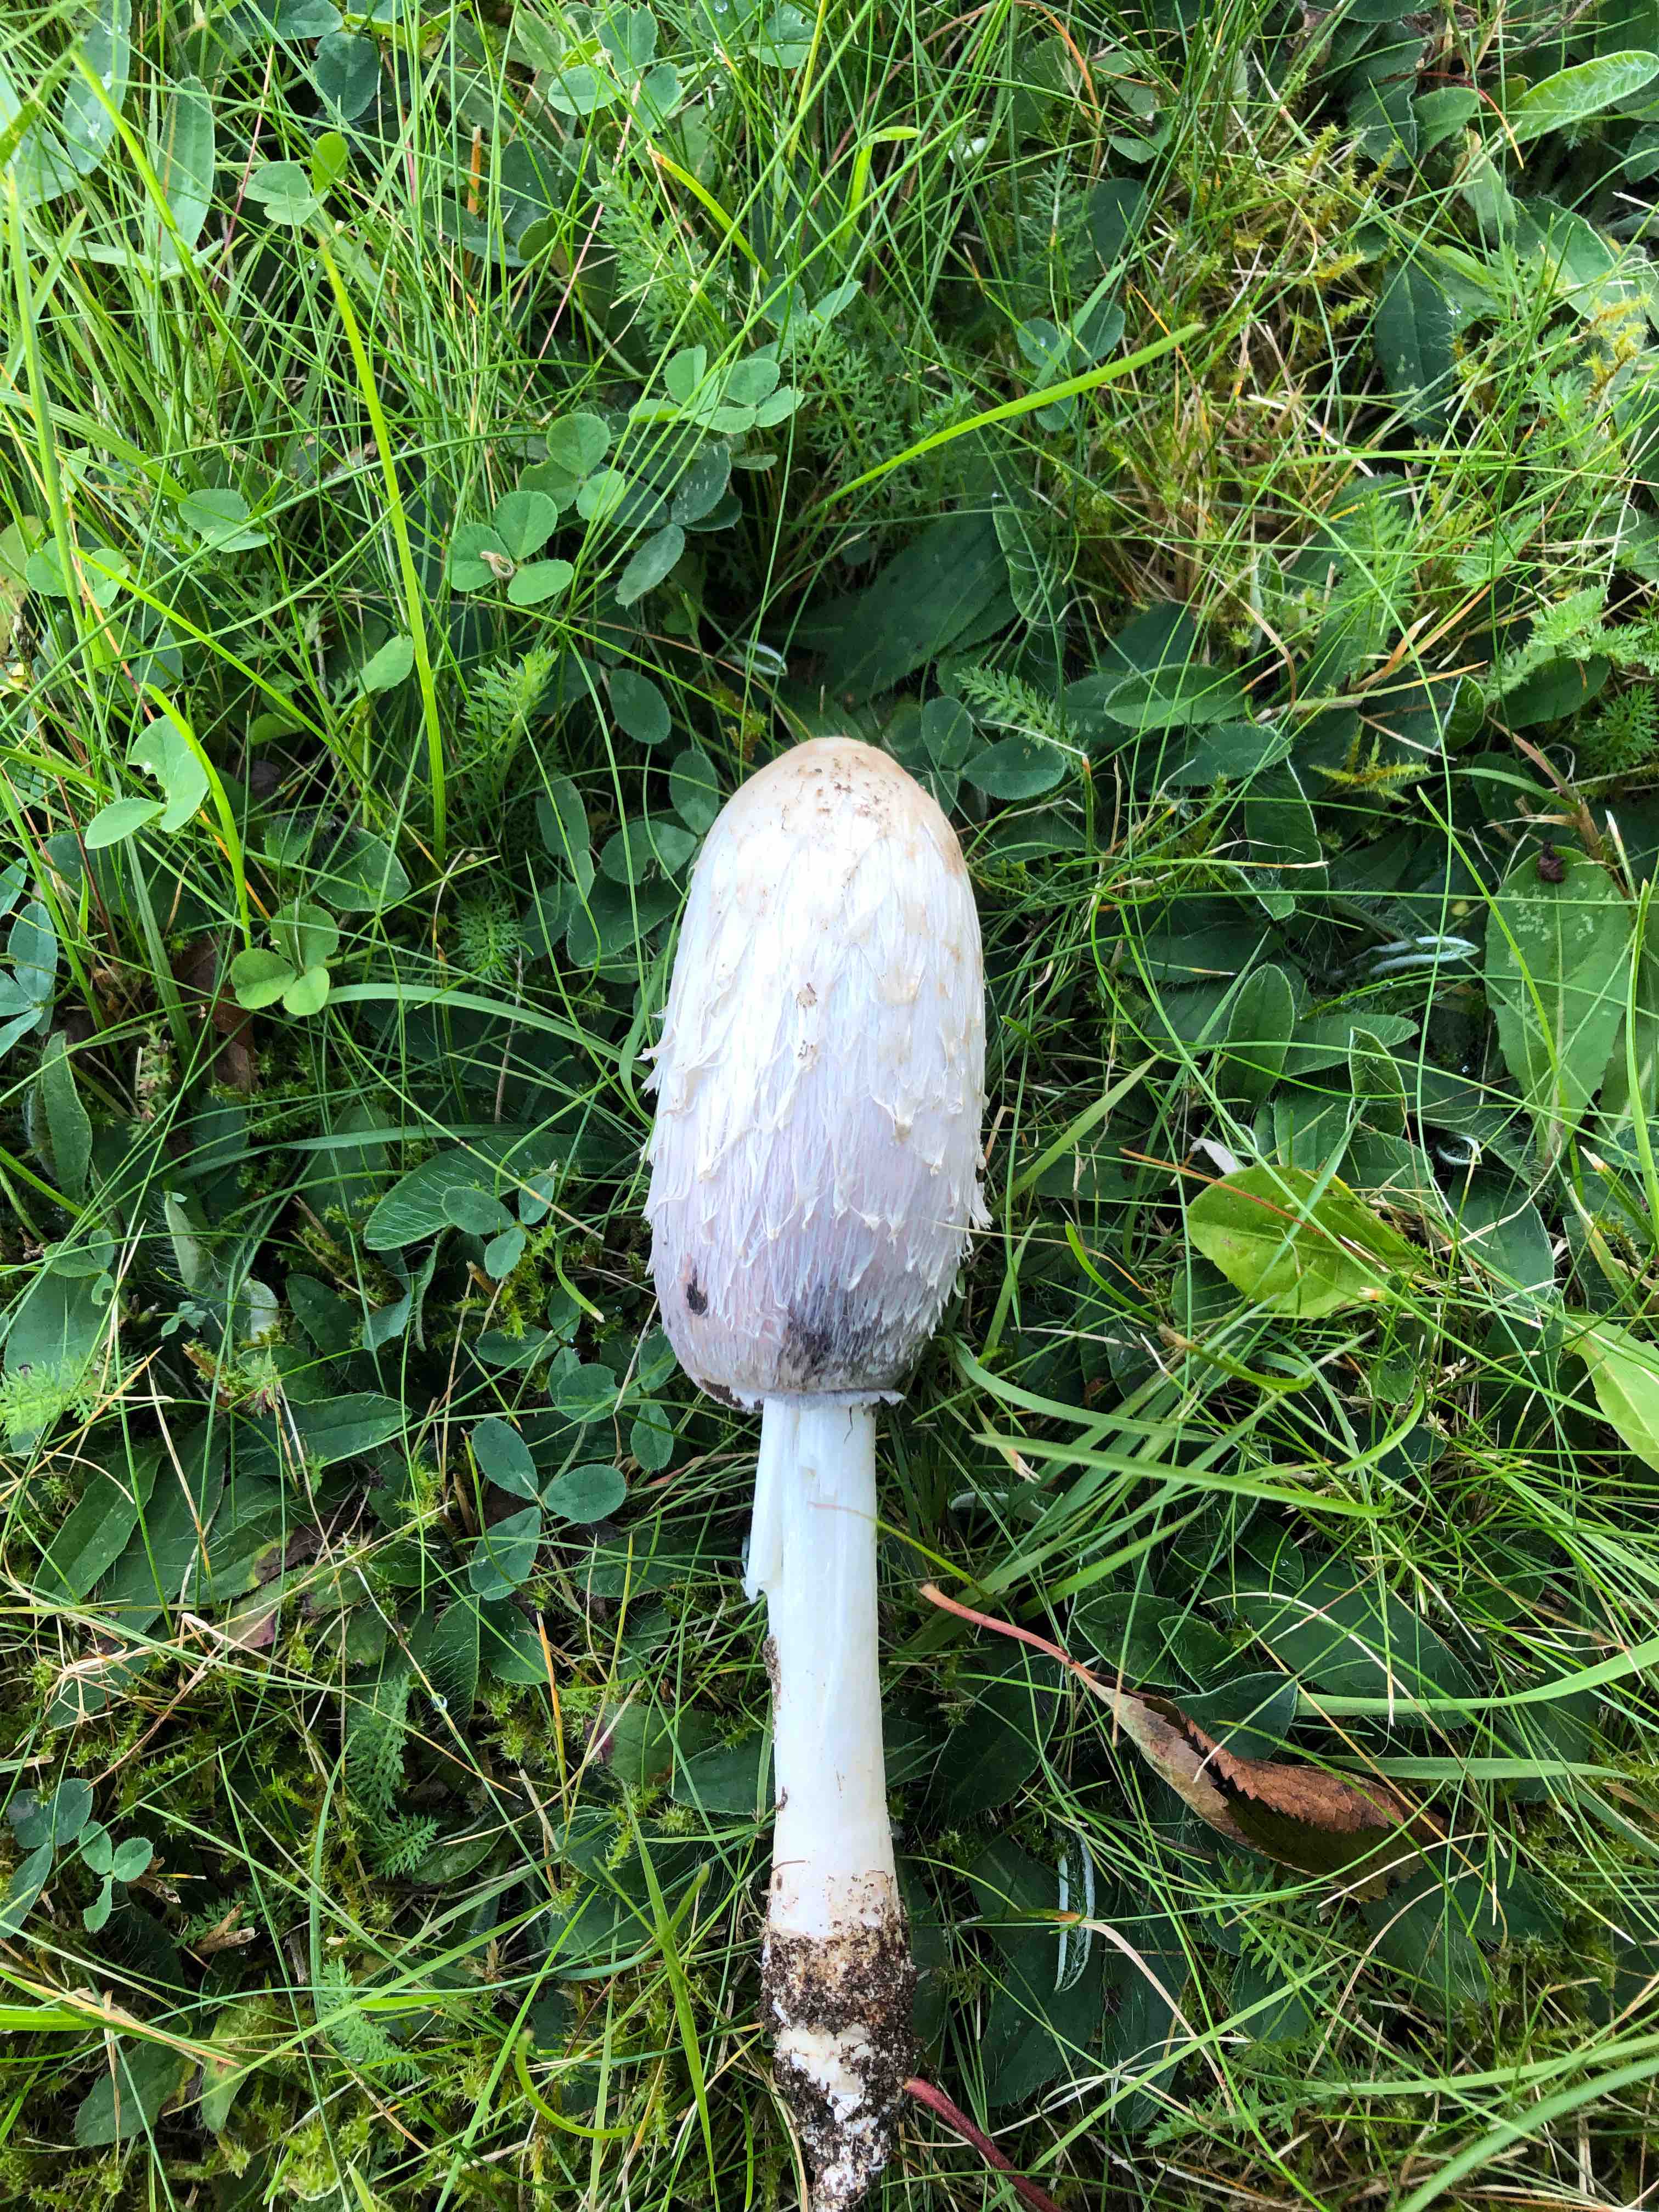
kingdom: Fungi
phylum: Basidiomycota
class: Agaricomycetes
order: Agaricales
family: Agaricaceae
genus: Coprinus
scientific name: Coprinus comatus
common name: stor parykhat
